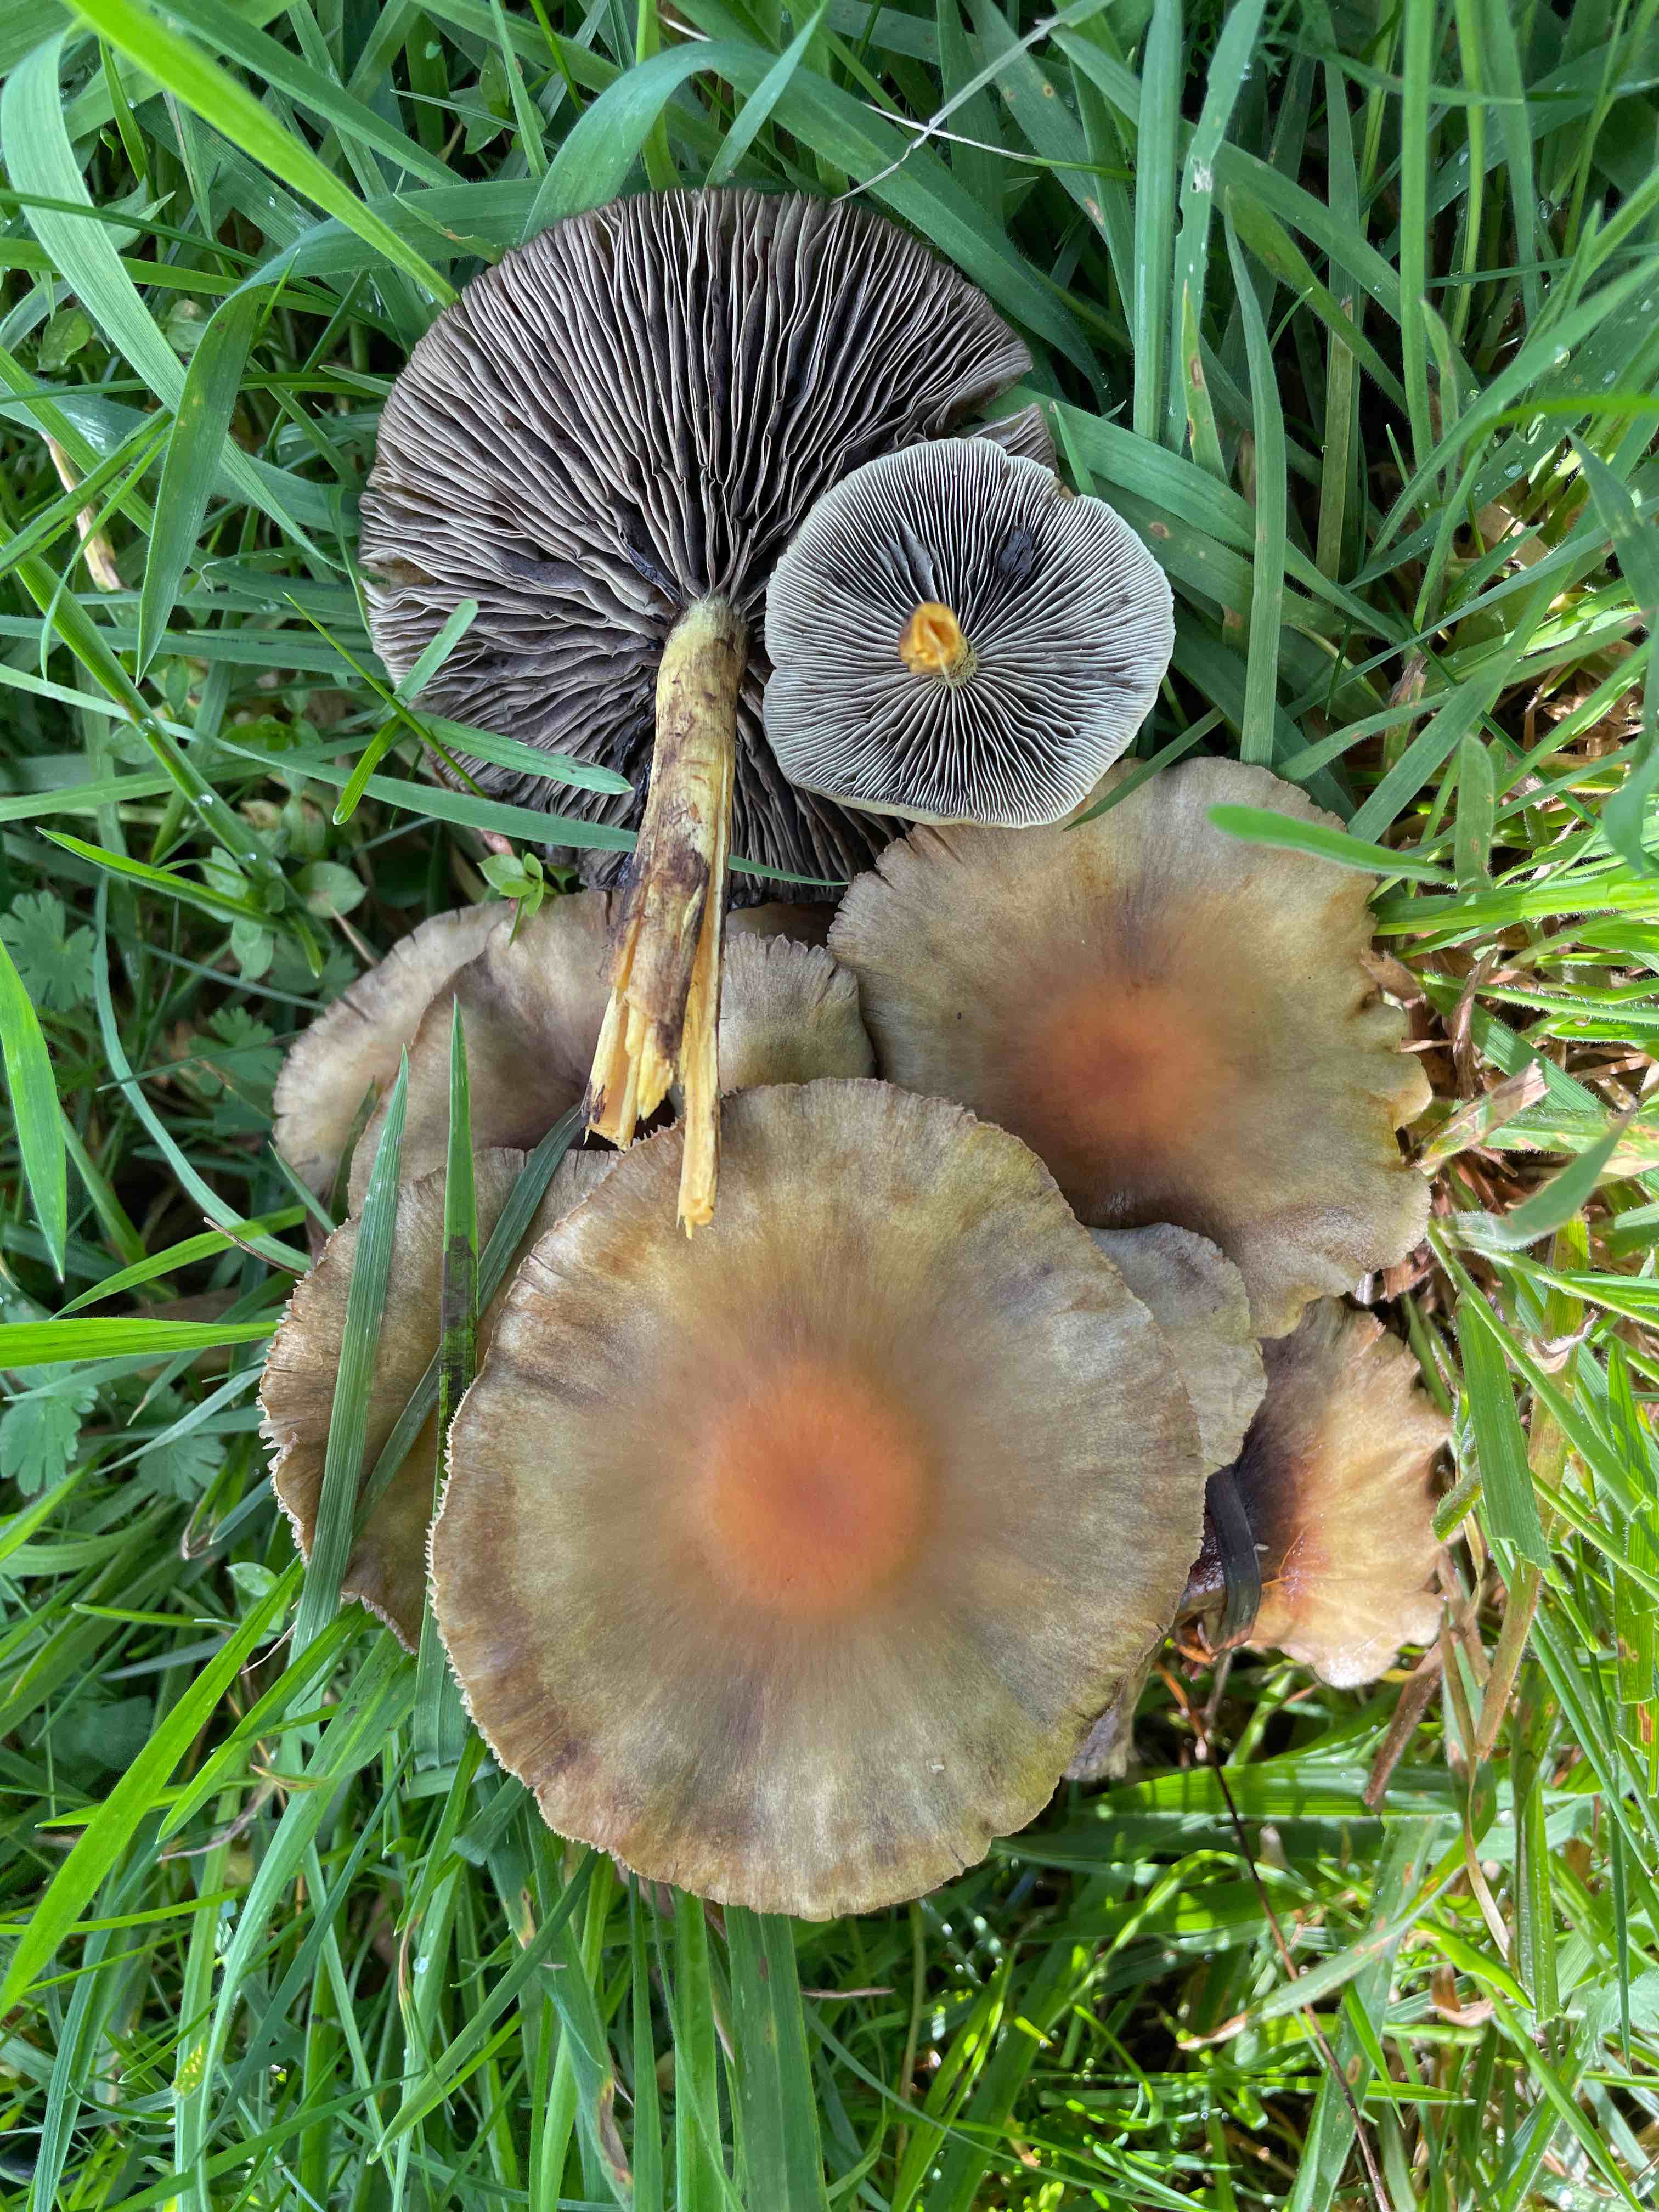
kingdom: Fungi
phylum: Basidiomycota
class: Agaricomycetes
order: Agaricales
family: Strophariaceae
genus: Hypholoma
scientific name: Hypholoma fasciculare
